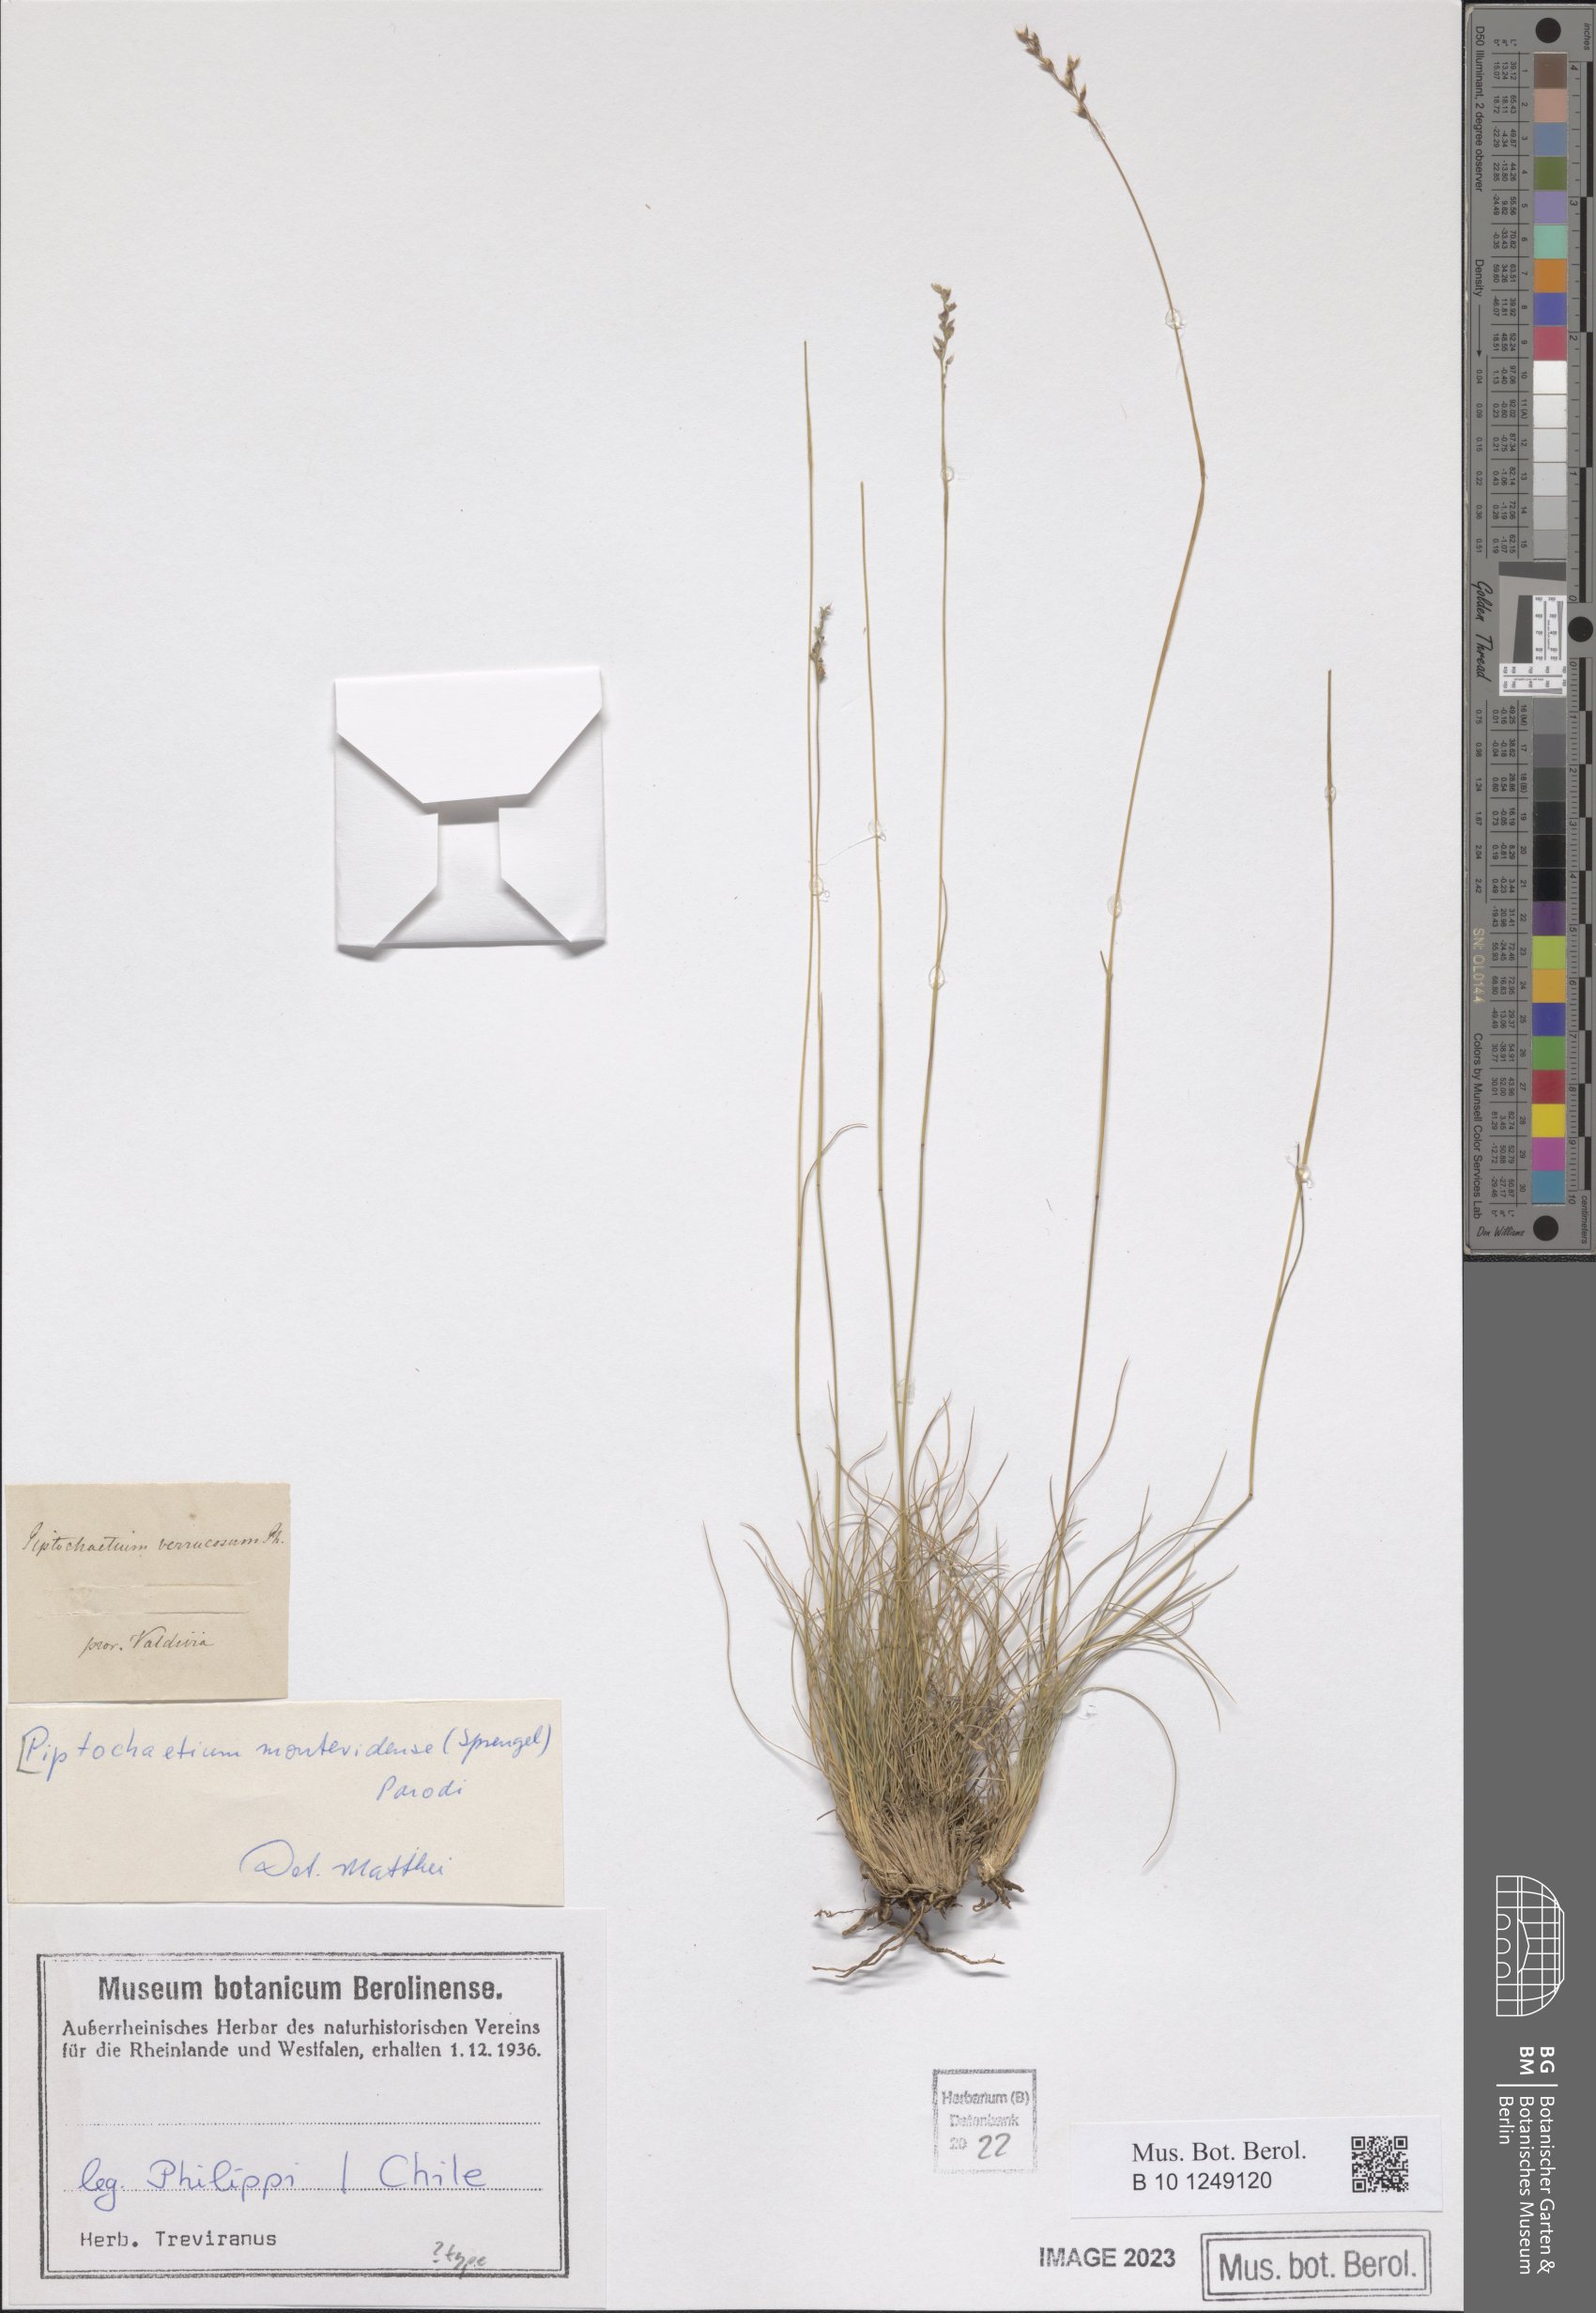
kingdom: Plantae
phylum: Tracheophyta
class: Liliopsida
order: Poales
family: Poaceae
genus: Piptochaetium
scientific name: Piptochaetium montevidense
